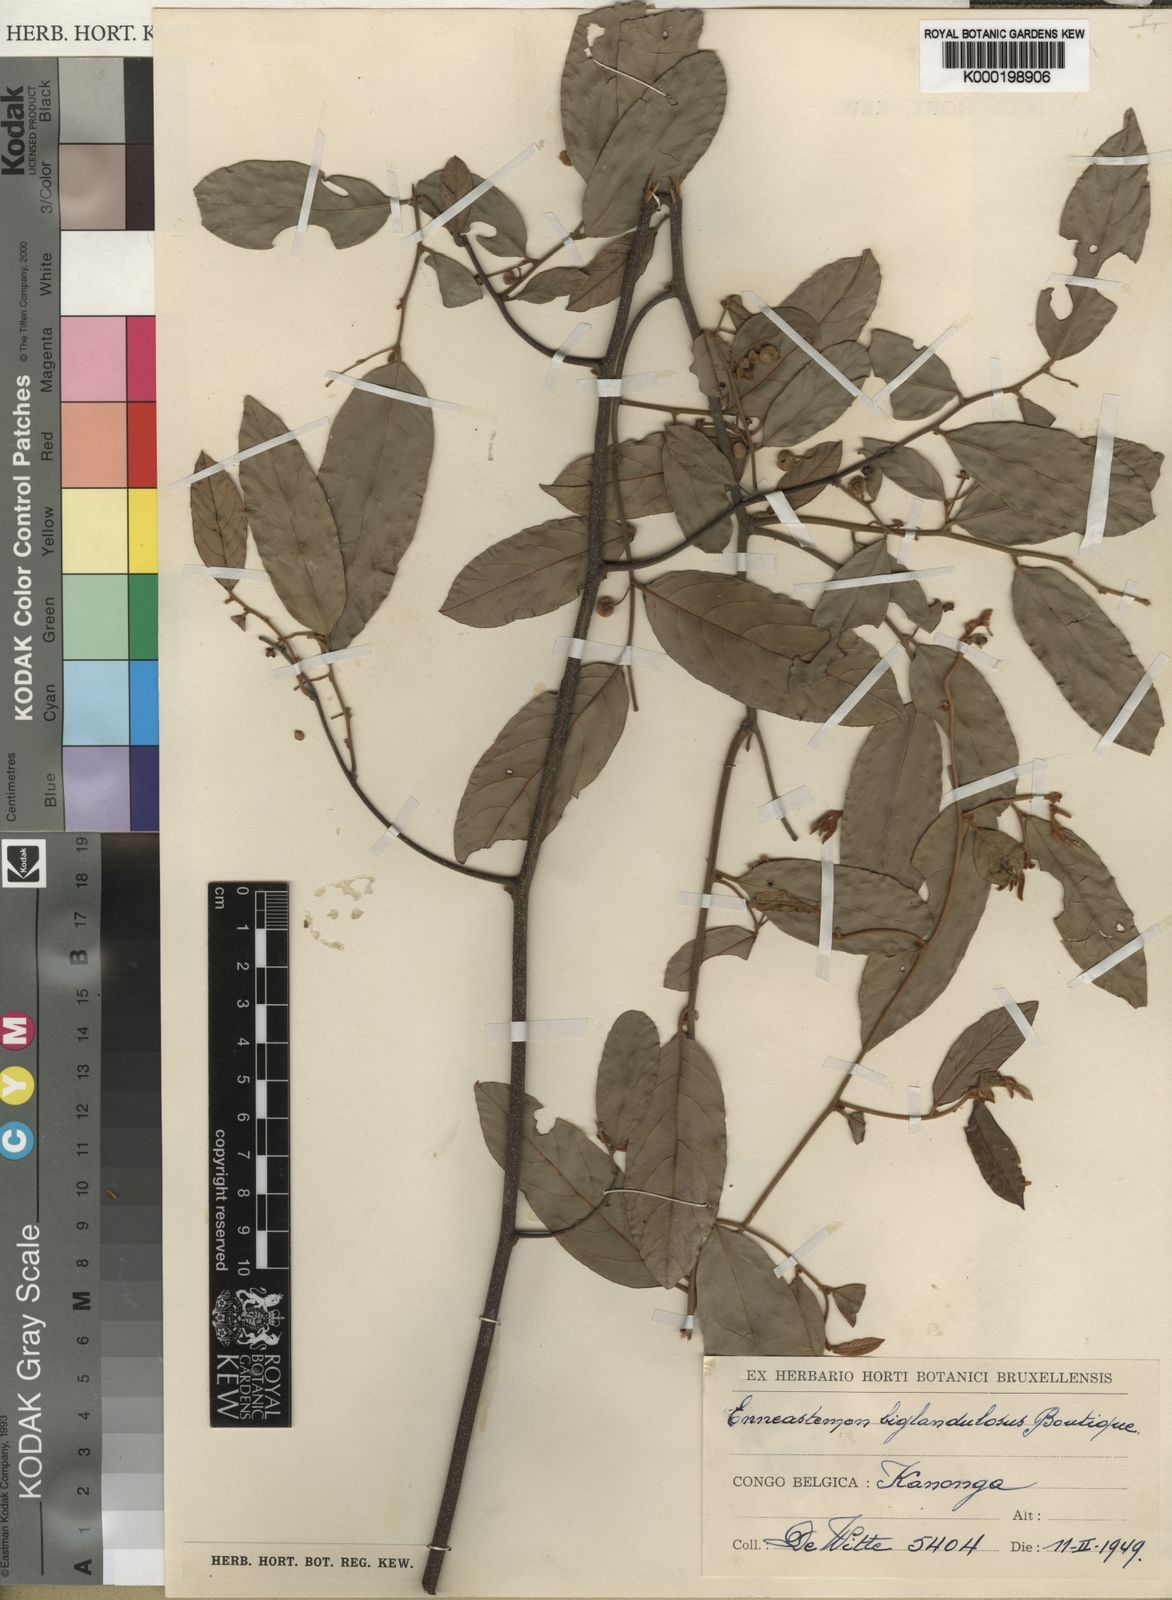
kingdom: Plantae
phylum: Tracheophyta
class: Magnoliopsida
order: Magnoliales
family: Annonaceae
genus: Monanthotaxis
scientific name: Monanthotaxis
